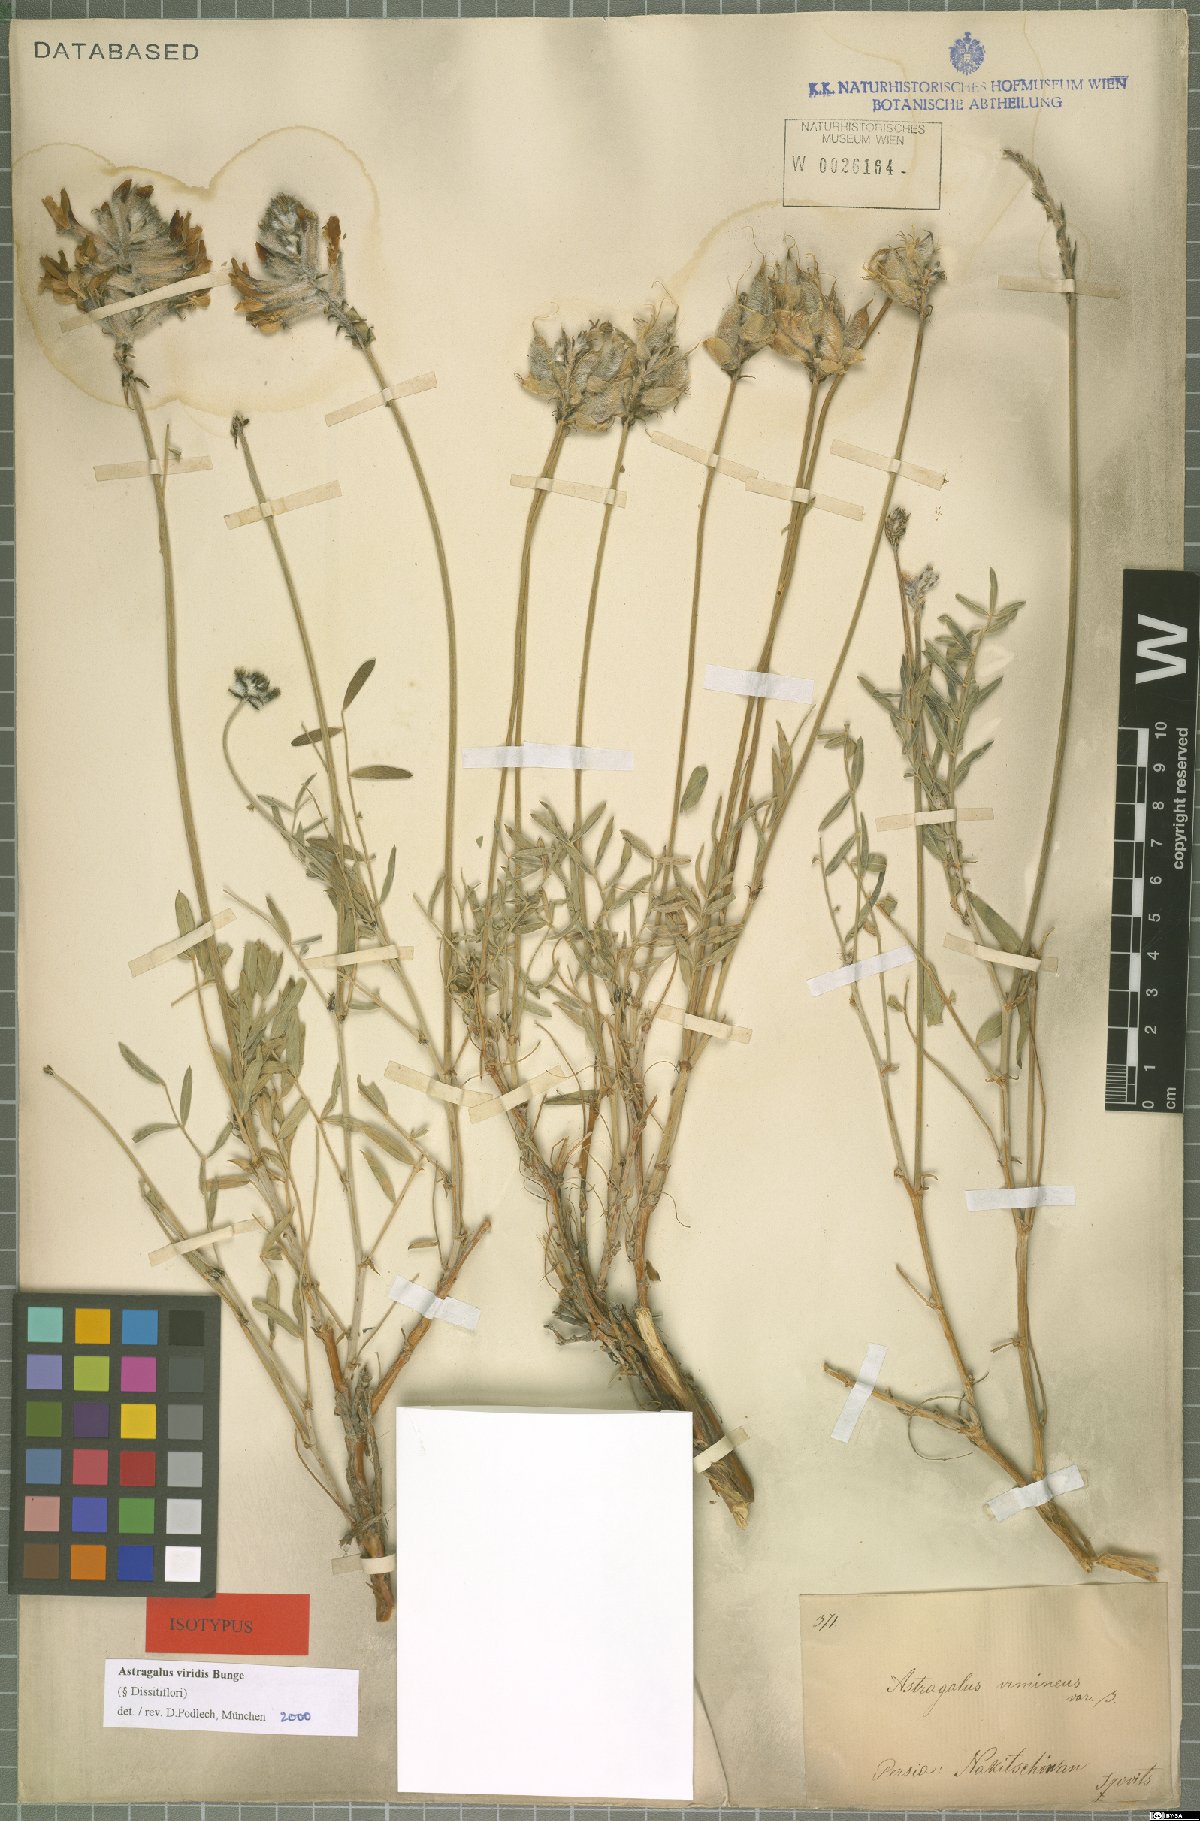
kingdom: Plantae
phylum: Tracheophyta
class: Magnoliopsida
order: Fabales
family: Fabaceae
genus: Astragalus
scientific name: Astragalus viridis
